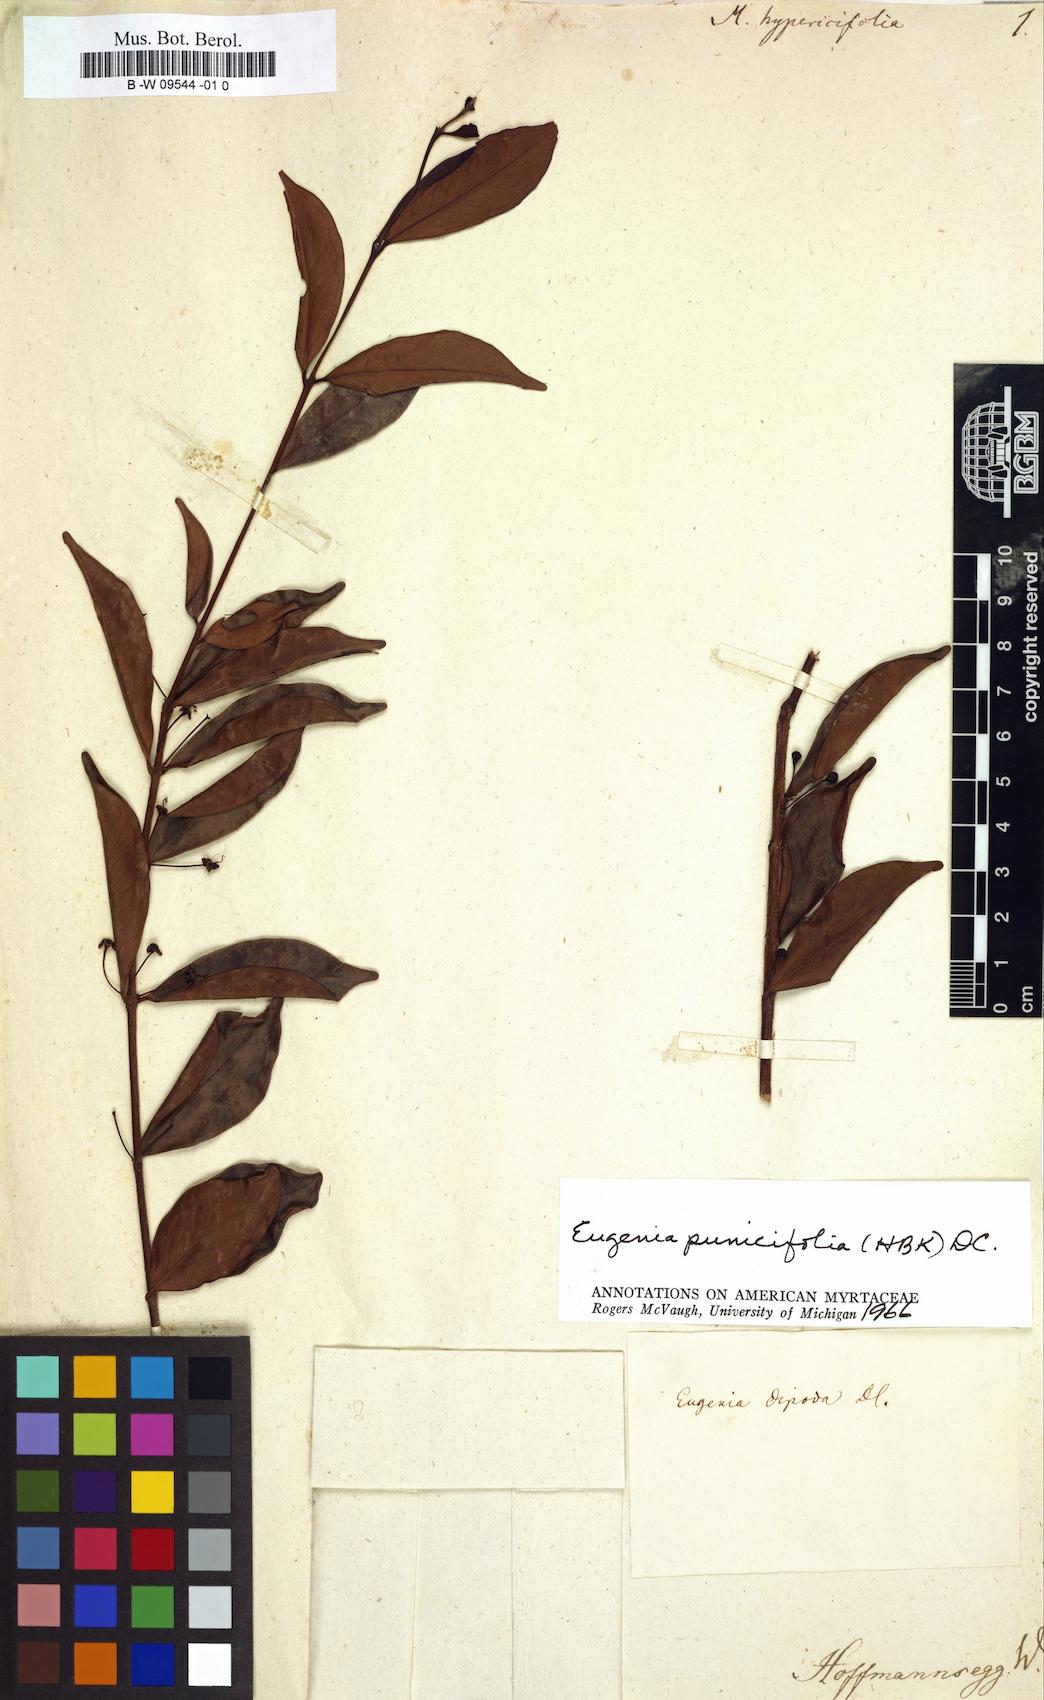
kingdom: Plantae
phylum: Tracheophyta
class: Magnoliopsida
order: Myrtales
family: Myrtaceae
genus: Syzygium
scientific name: Syzygium blumei
